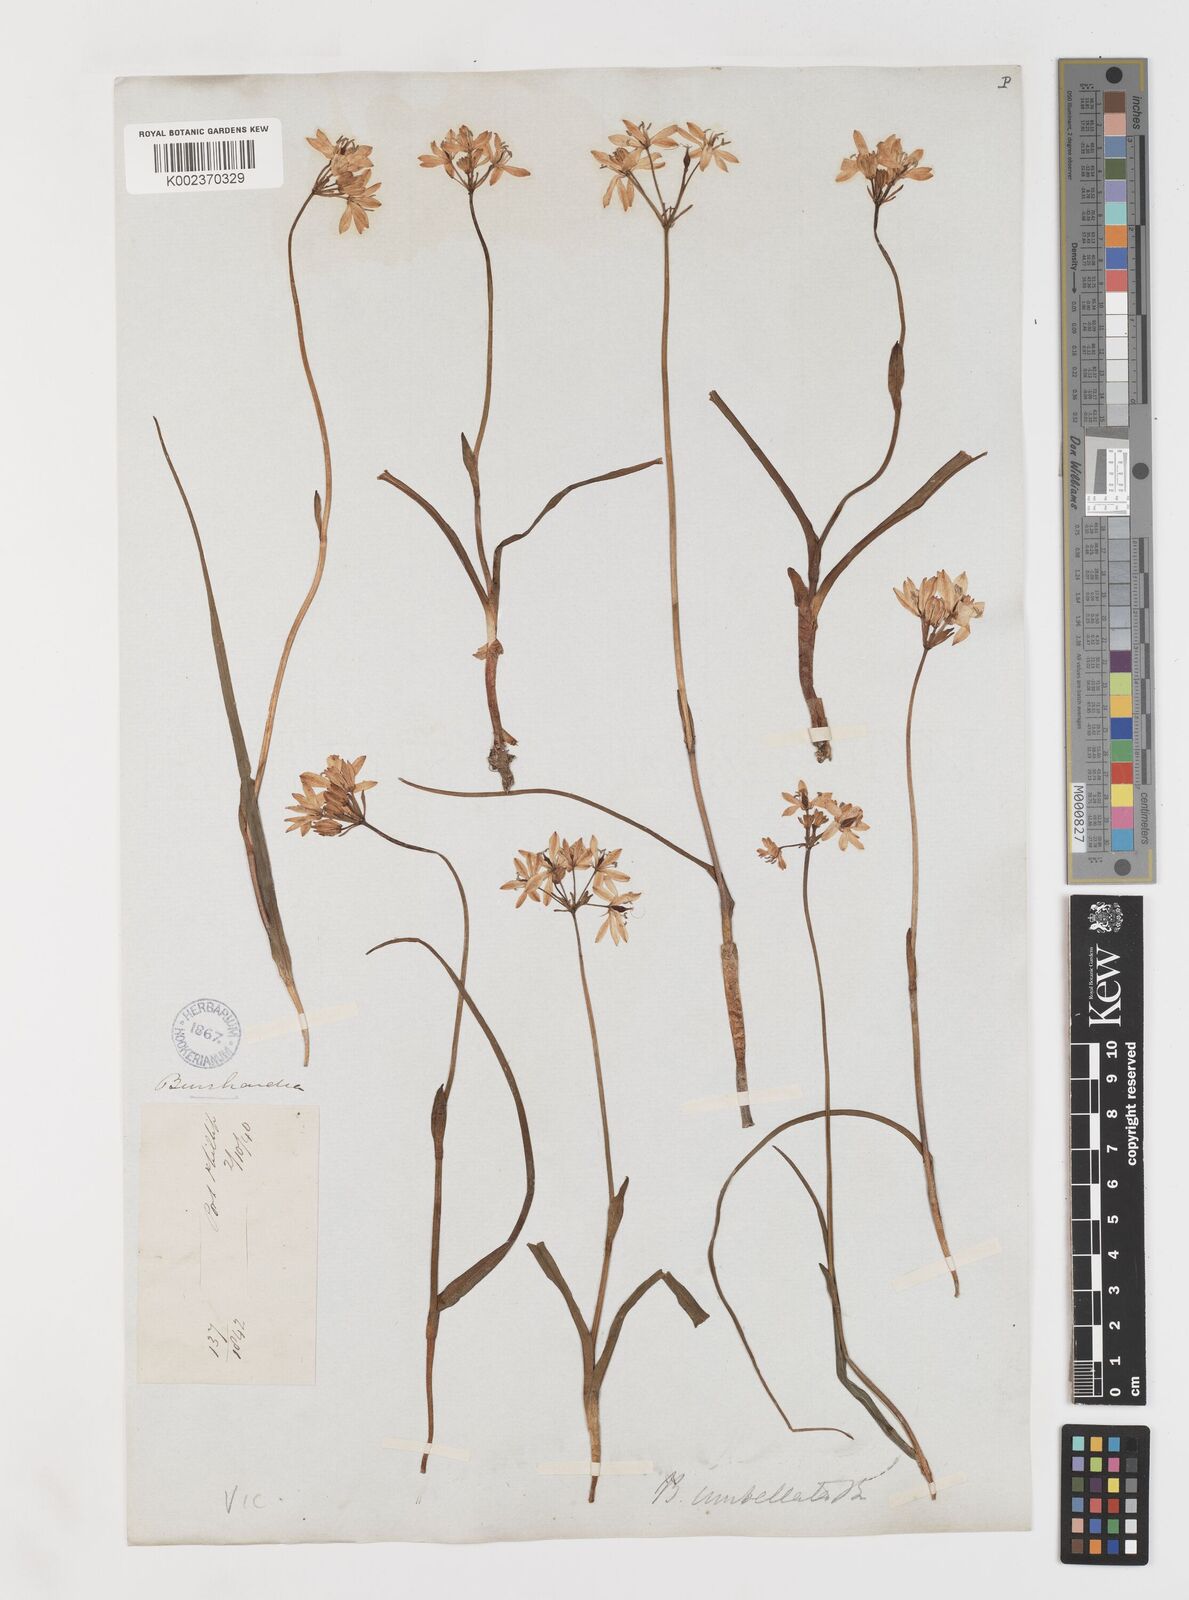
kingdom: Plantae
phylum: Tracheophyta
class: Liliopsida
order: Liliales
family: Colchicaceae
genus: Burchardia
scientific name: Burchardia umbellata
